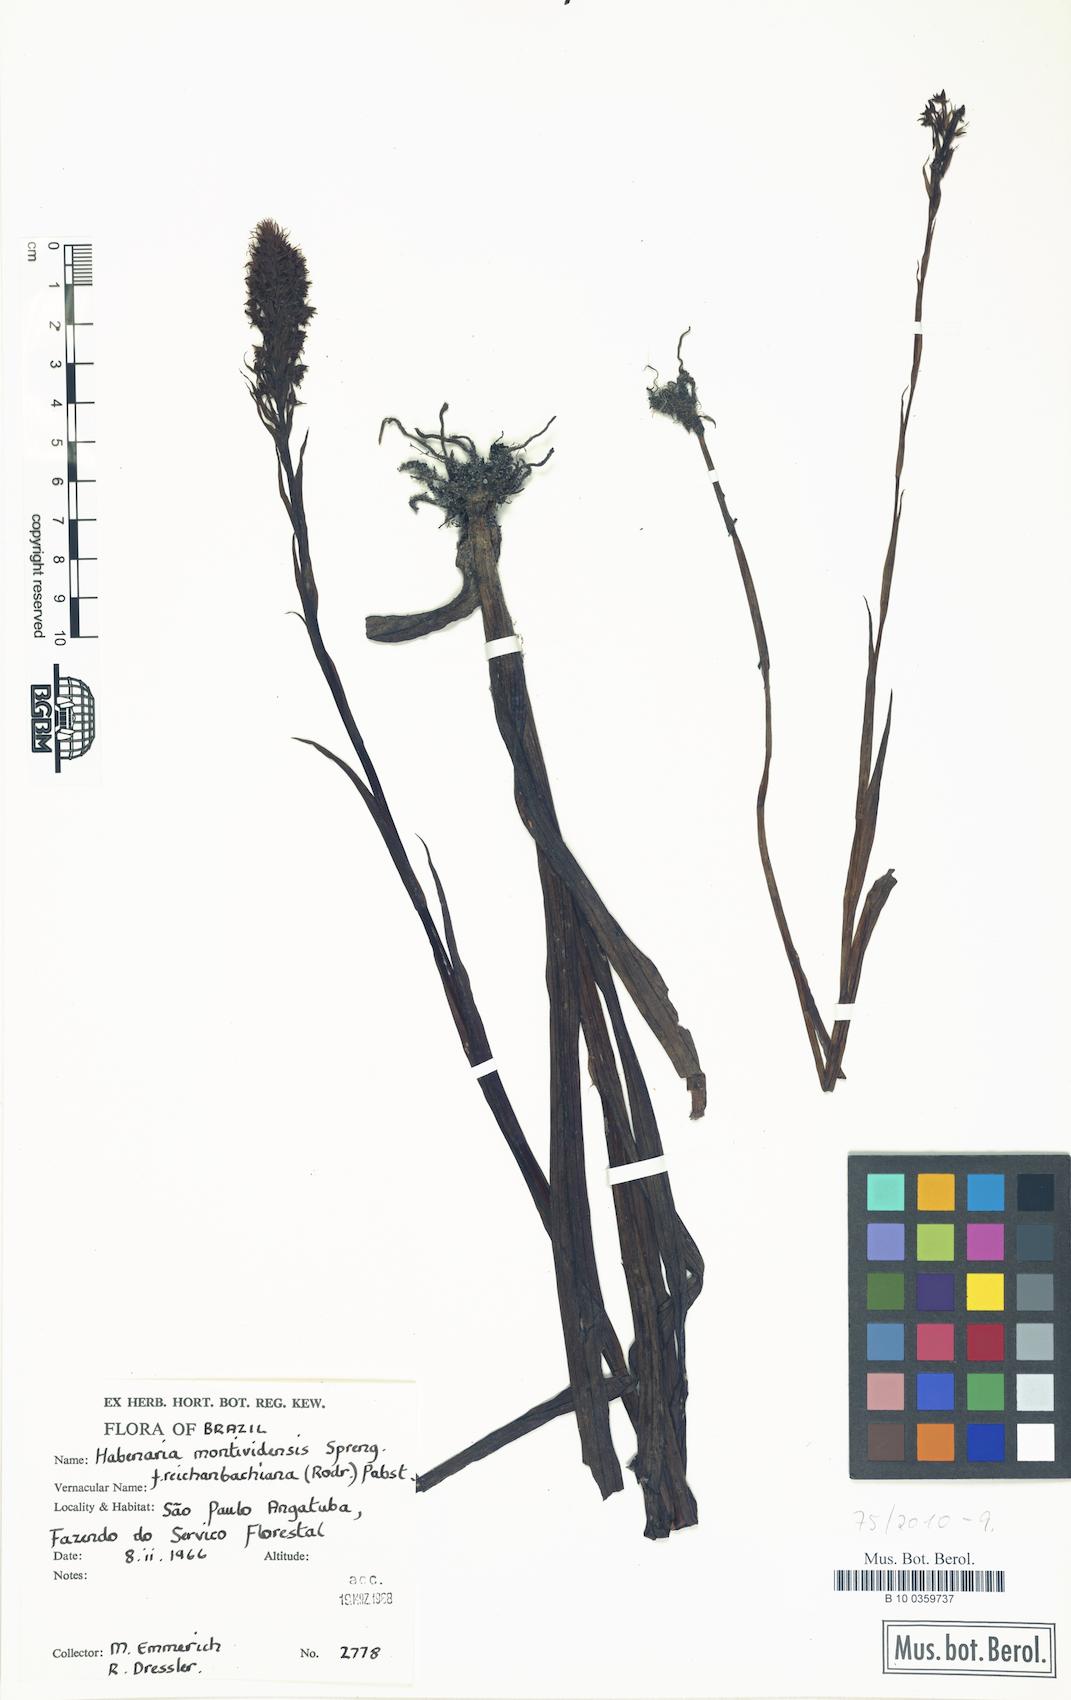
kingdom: Plantae
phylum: Tracheophyta
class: Liliopsida
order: Asparagales
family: Orchidaceae
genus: Habenaria
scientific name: Habenaria parviflora
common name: Small flowered habenaria
